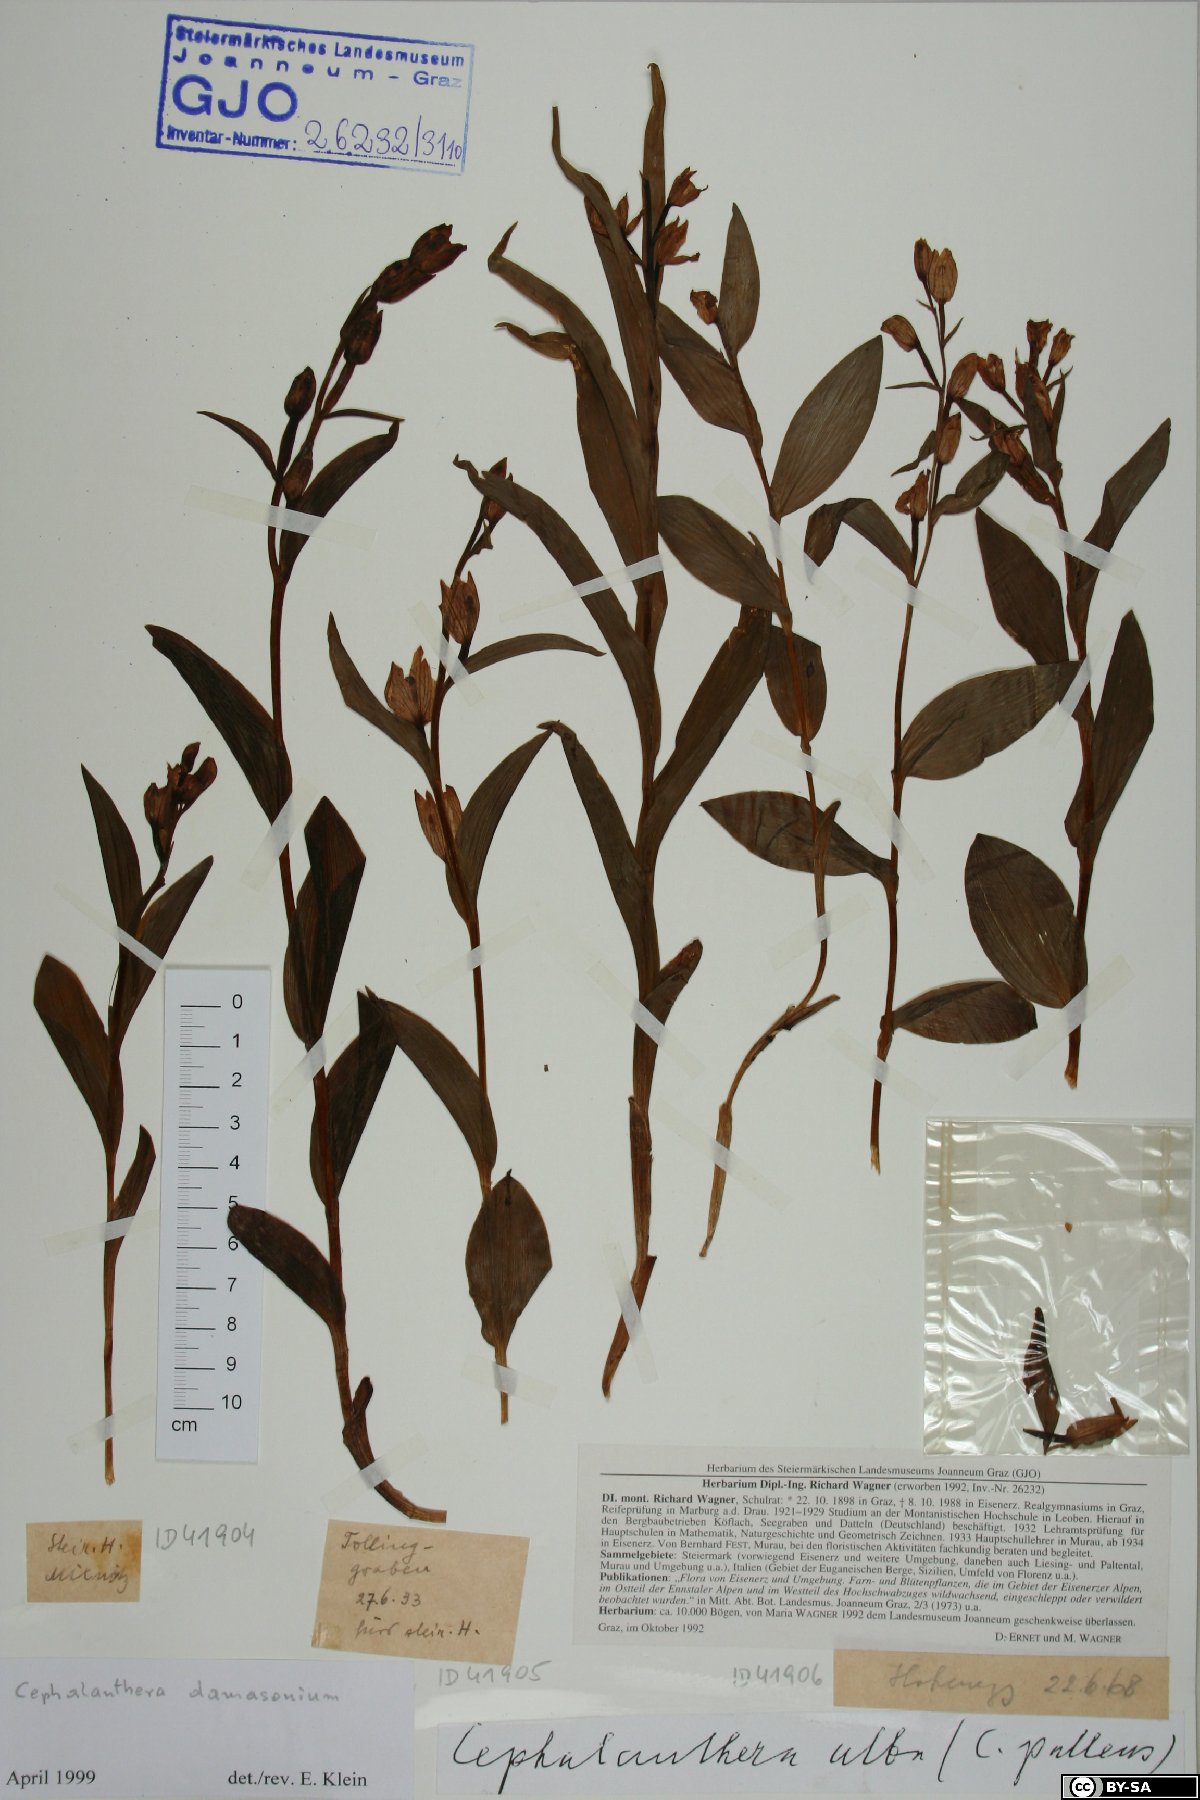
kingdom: Plantae
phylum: Tracheophyta
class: Liliopsida
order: Asparagales
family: Orchidaceae
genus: Cephalanthera
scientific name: Cephalanthera damasonium
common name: White helleborine
